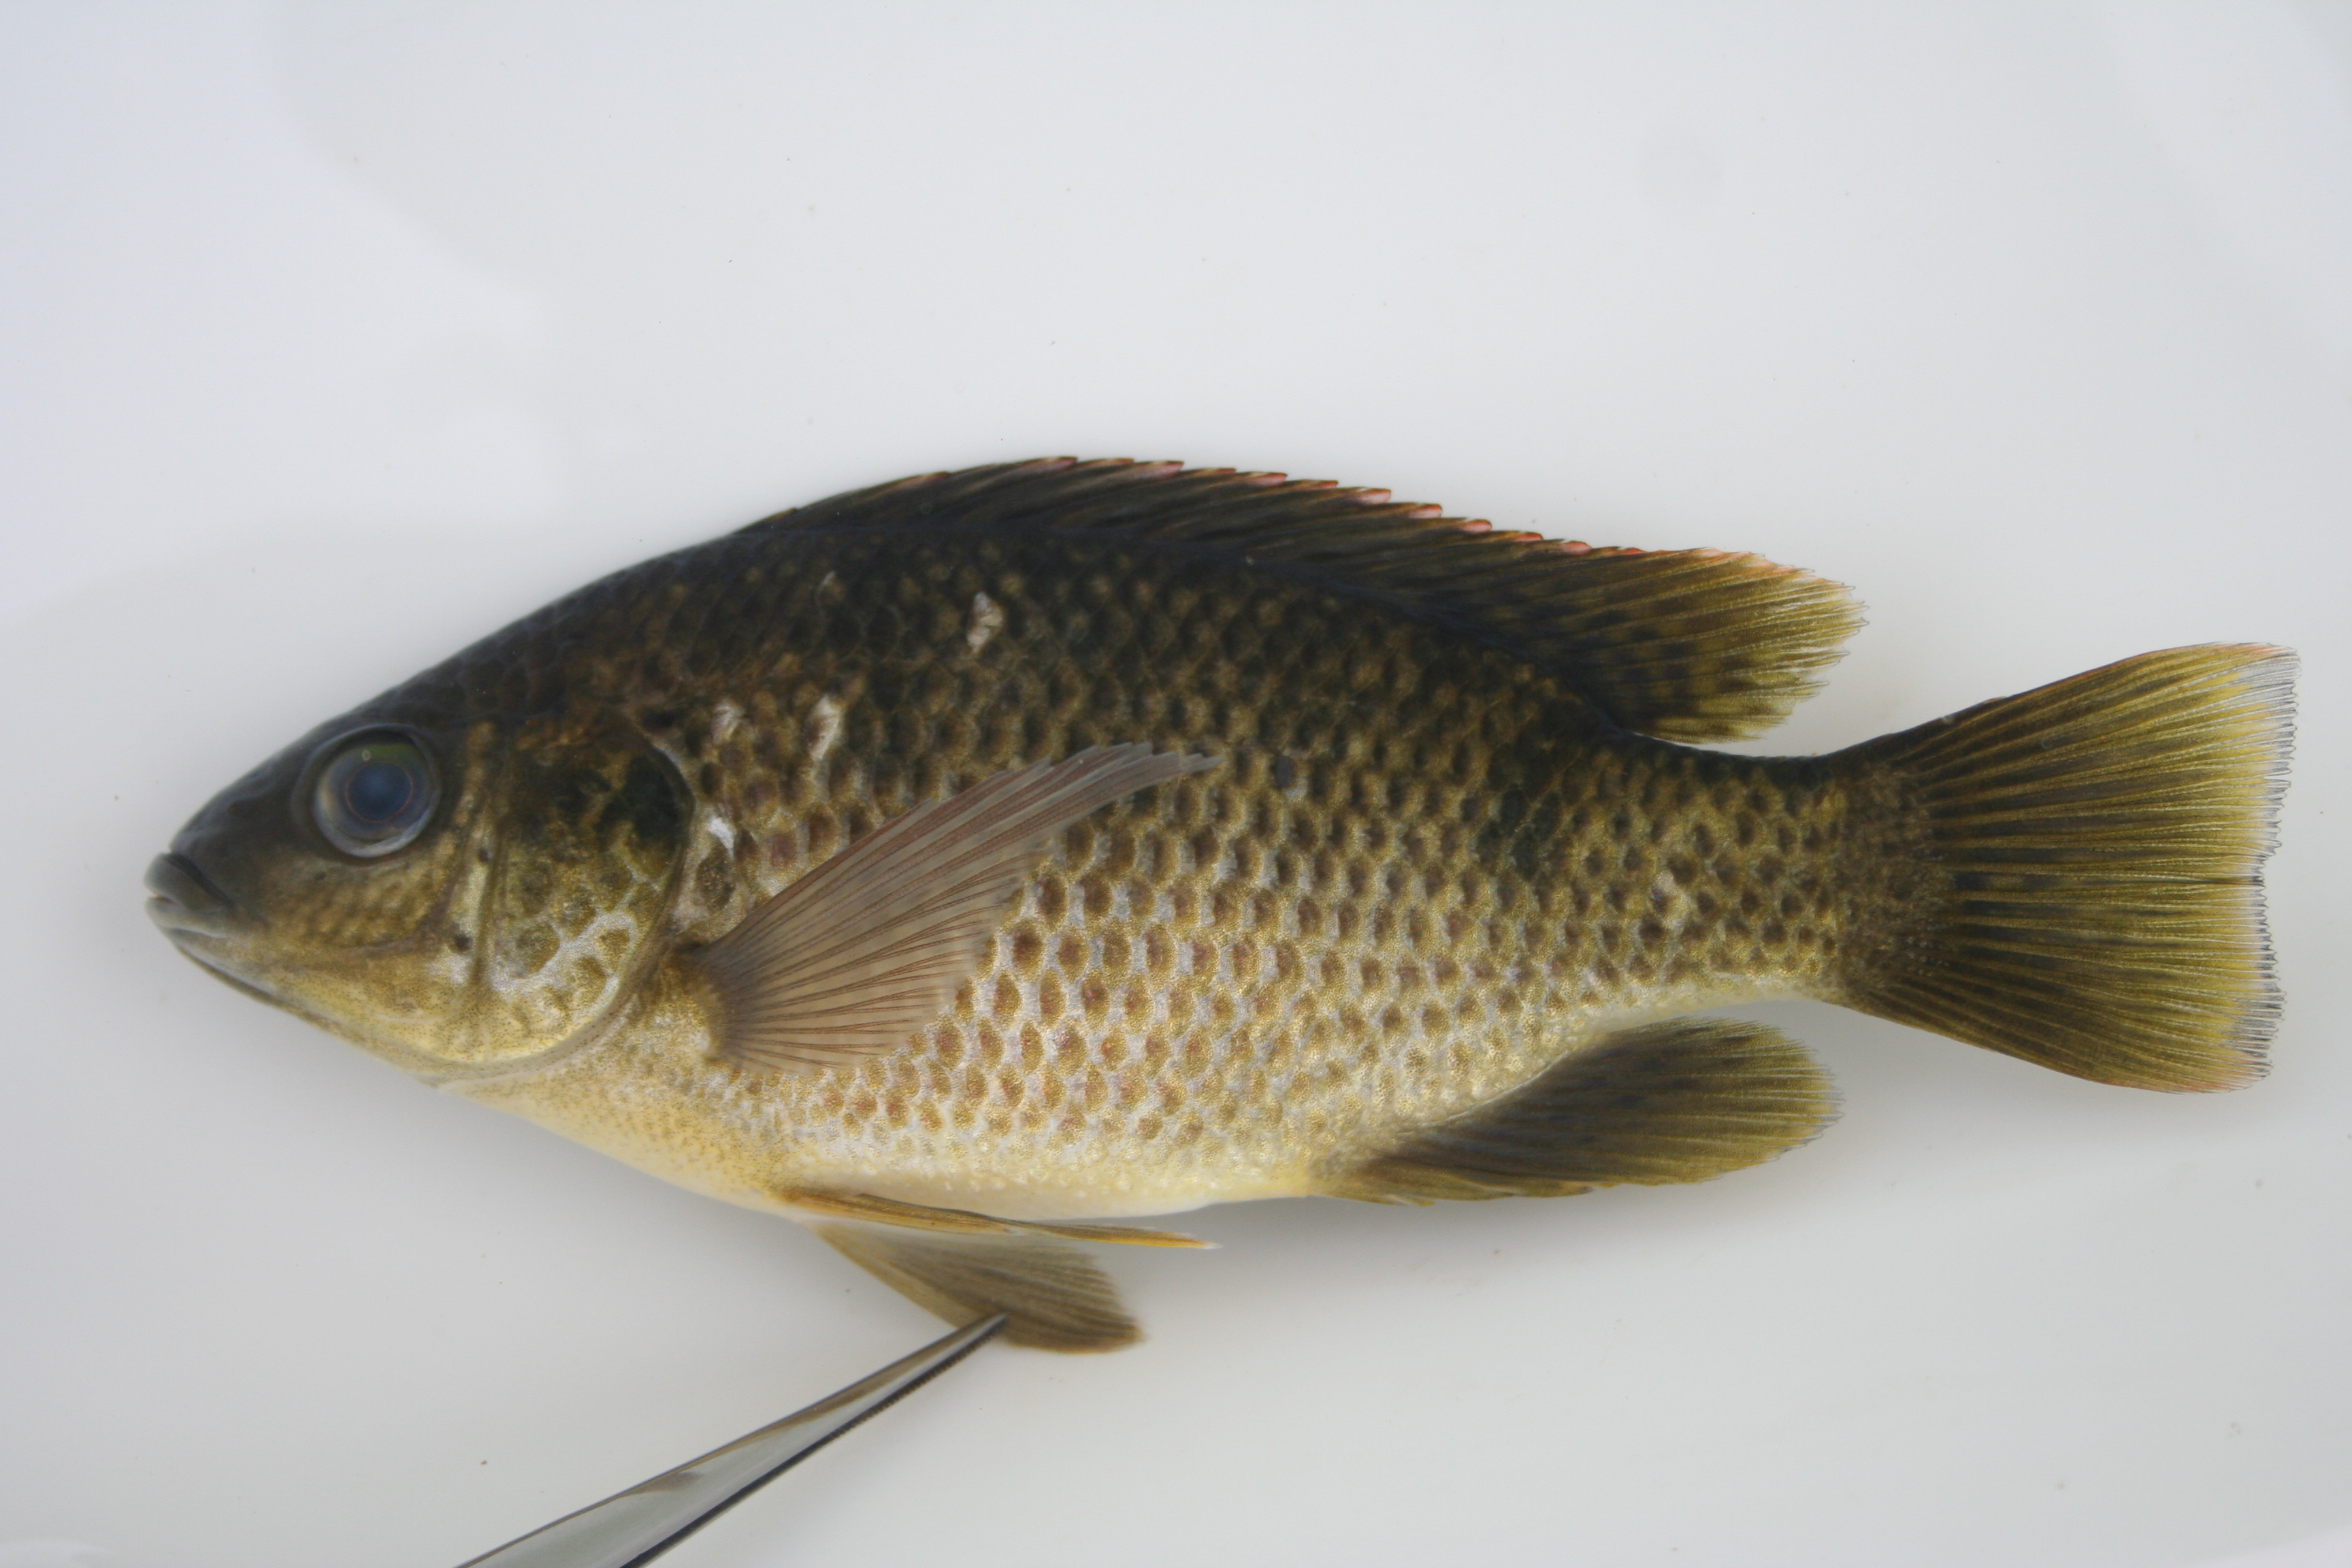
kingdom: Animalia
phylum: Chordata
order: Perciformes
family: Cichlidae
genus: Oreochromis
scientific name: Oreochromis andersonii
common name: Threespot tilapia
